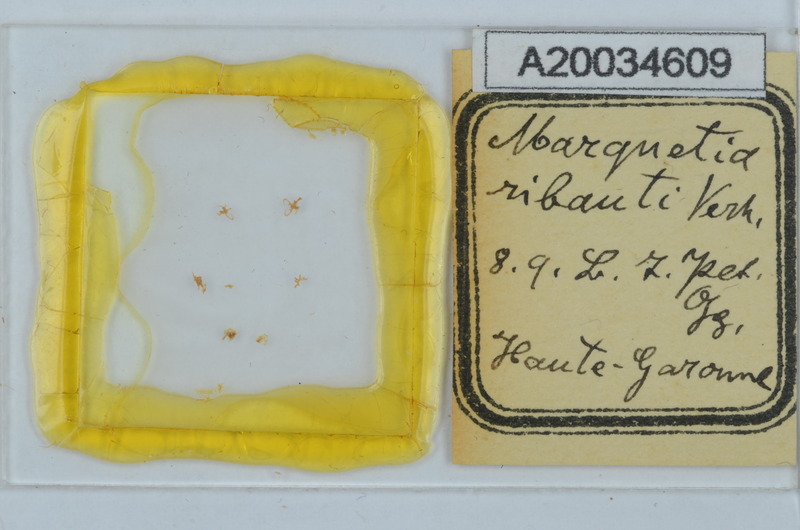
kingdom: Animalia
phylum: Arthropoda
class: Diplopoda
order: Chordeumatida
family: Opisthocheiridae
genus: Marquetia
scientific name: Marquetia
